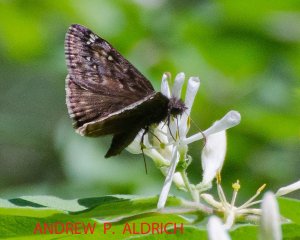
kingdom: Animalia
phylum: Arthropoda
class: Insecta
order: Lepidoptera
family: Hesperiidae
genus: Gesta
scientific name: Gesta
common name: Juvenal's Duskywing
